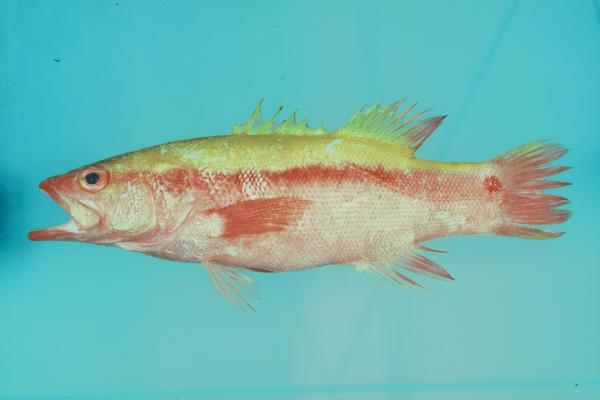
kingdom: Animalia
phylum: Chordata
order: Perciformes
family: Serranidae
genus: Liopropoma
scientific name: Liopropoma erythraeum
